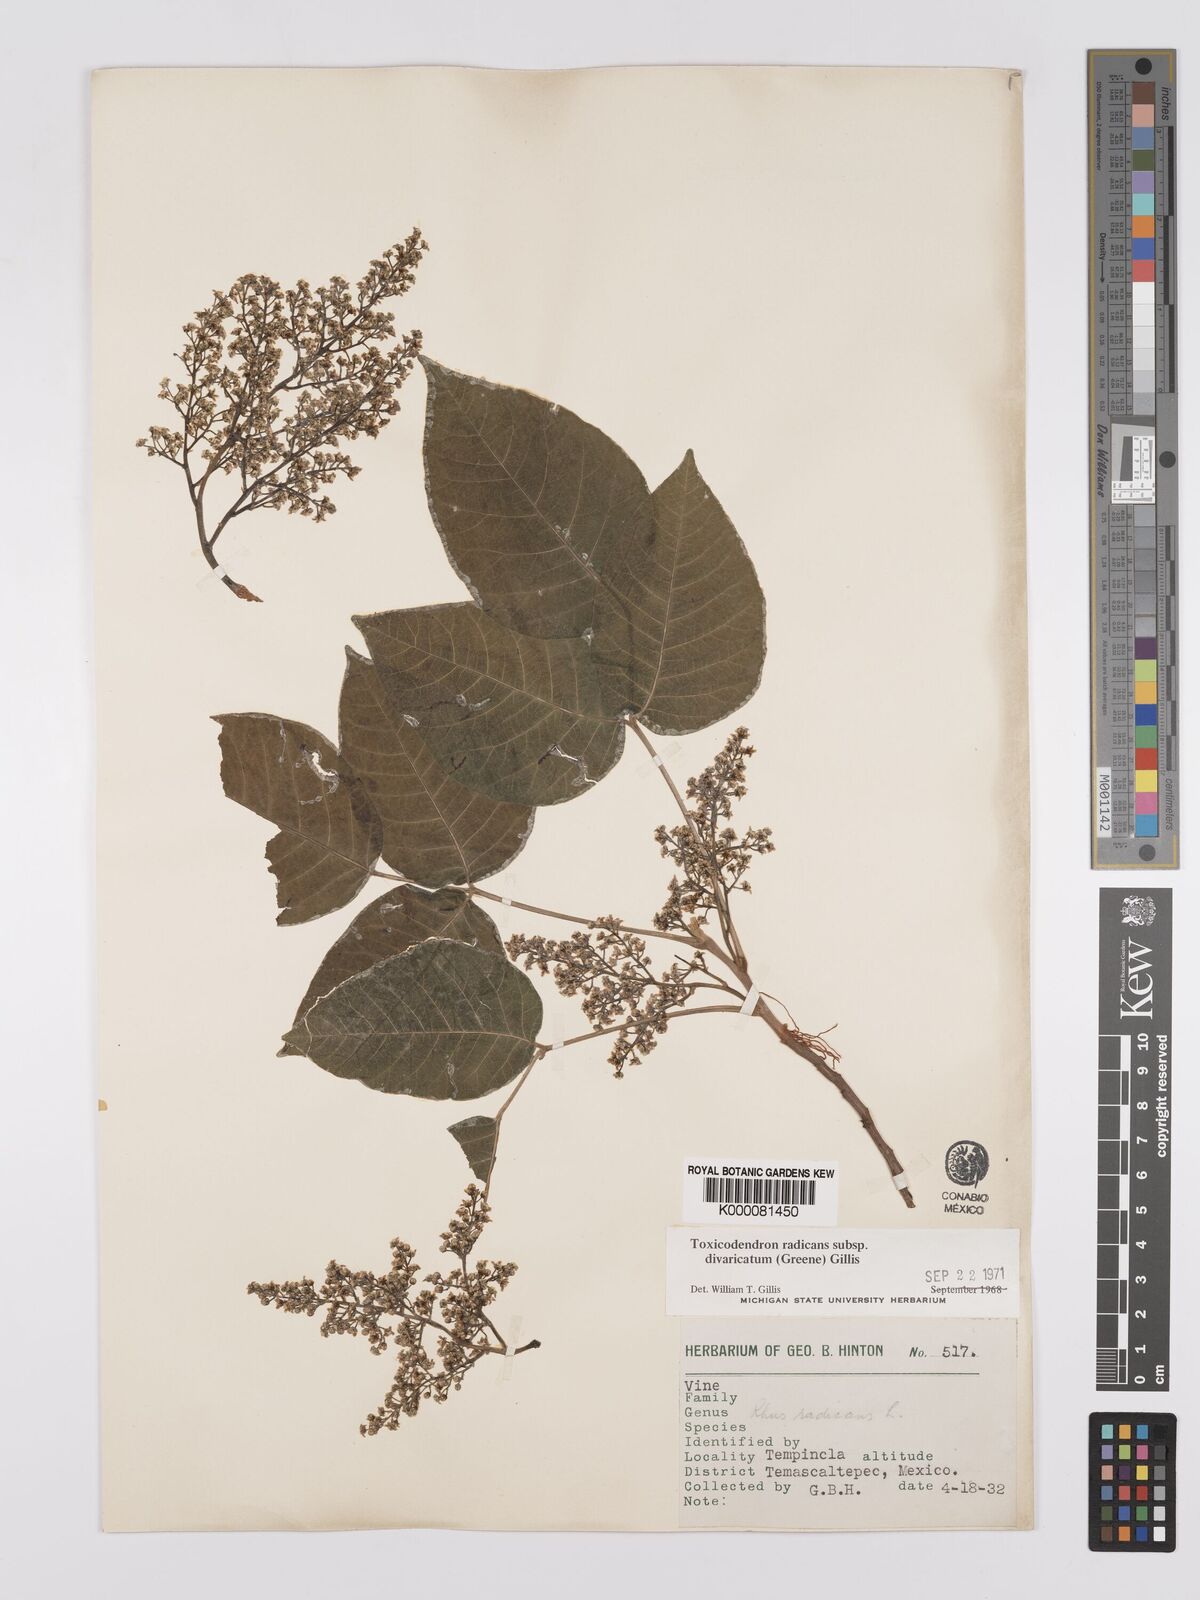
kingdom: Plantae
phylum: Tracheophyta
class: Magnoliopsida
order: Sapindales
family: Anacardiaceae
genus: Toxicodendron
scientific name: Toxicodendron radicans
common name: Poison ivy
